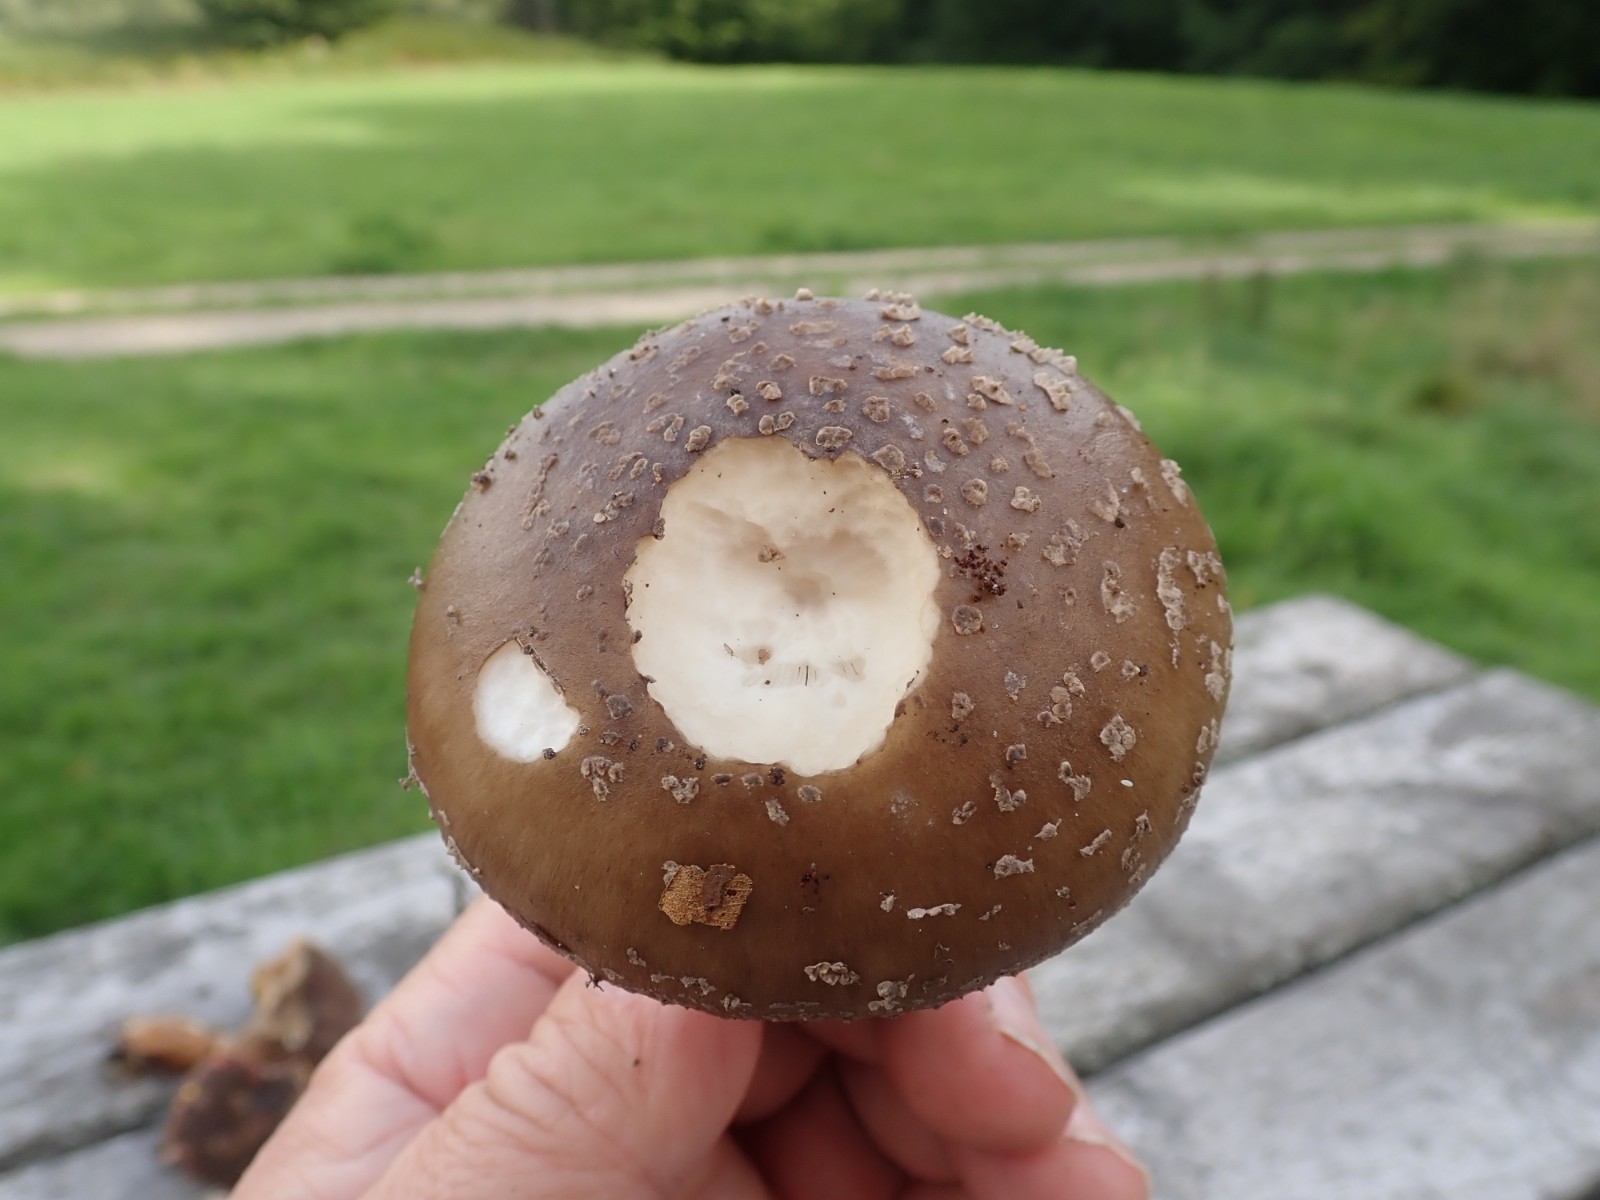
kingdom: Fungi
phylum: Basidiomycota
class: Agaricomycetes
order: Agaricales
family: Amanitaceae
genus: Amanita
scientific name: Amanita
